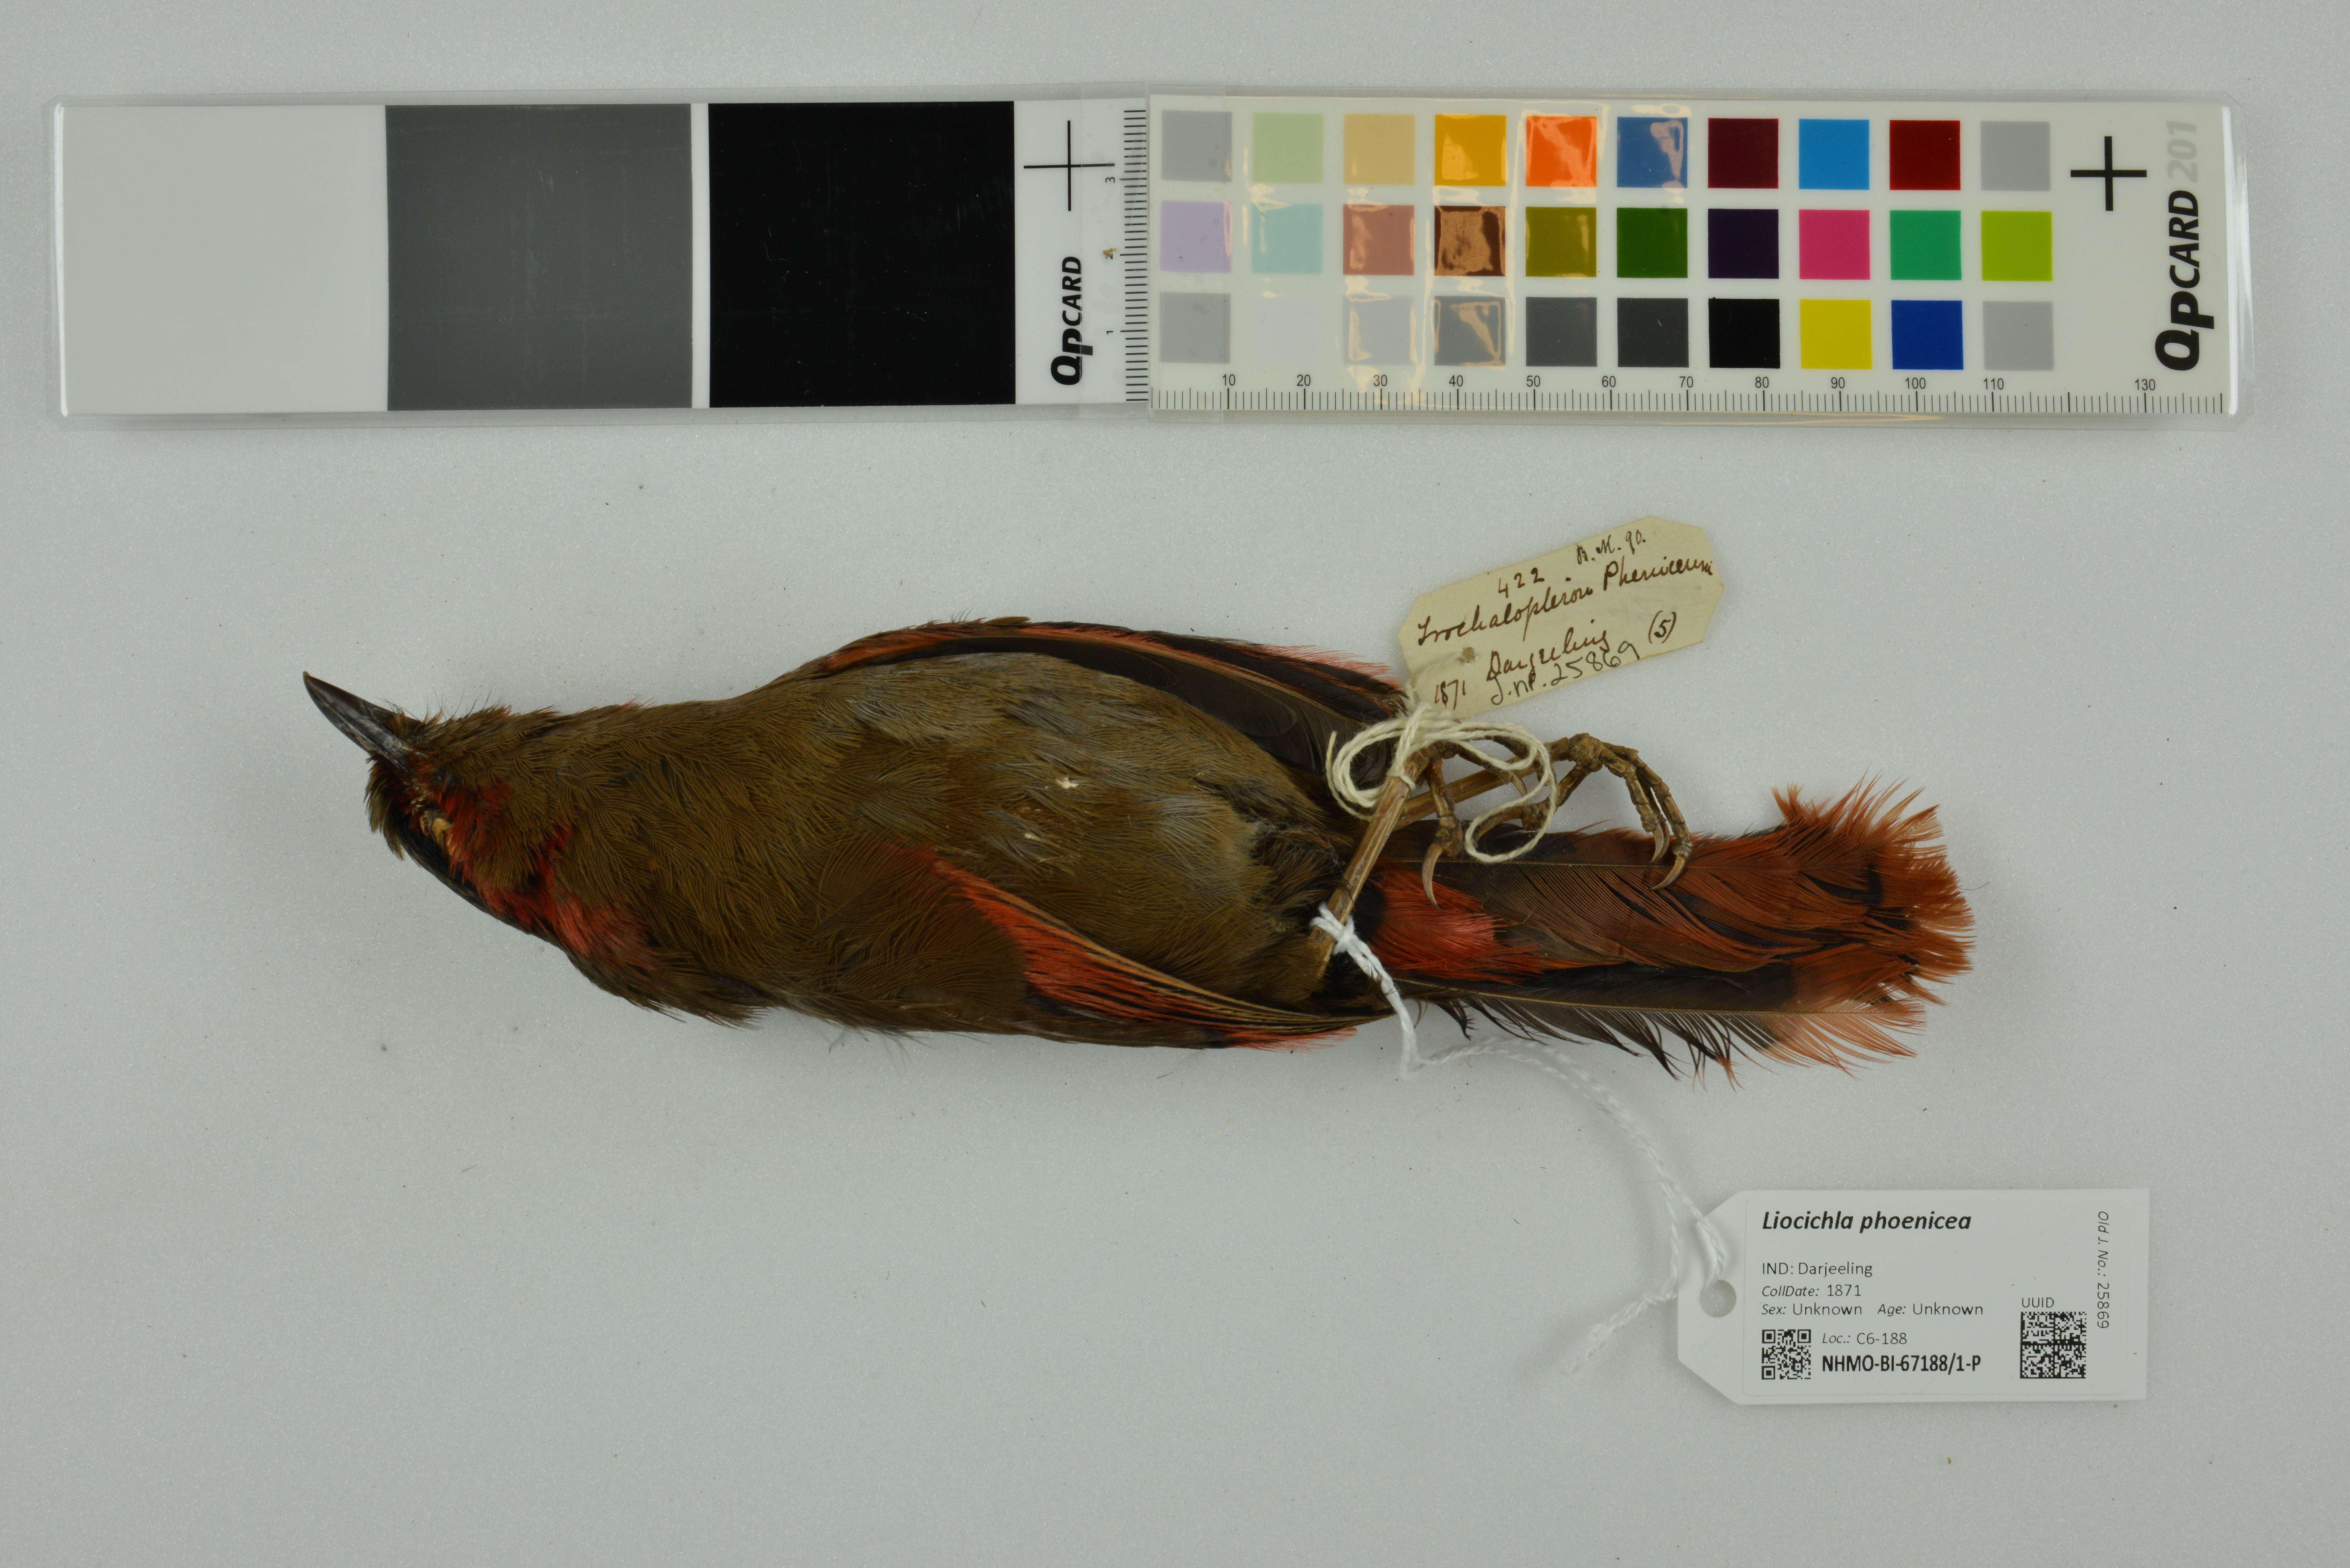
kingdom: Animalia
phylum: Chordata
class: Aves
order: Passeriformes
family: Leiothrichidae
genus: Liocichla
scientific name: Liocichla phoenicea
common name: Red-faced liocichla
